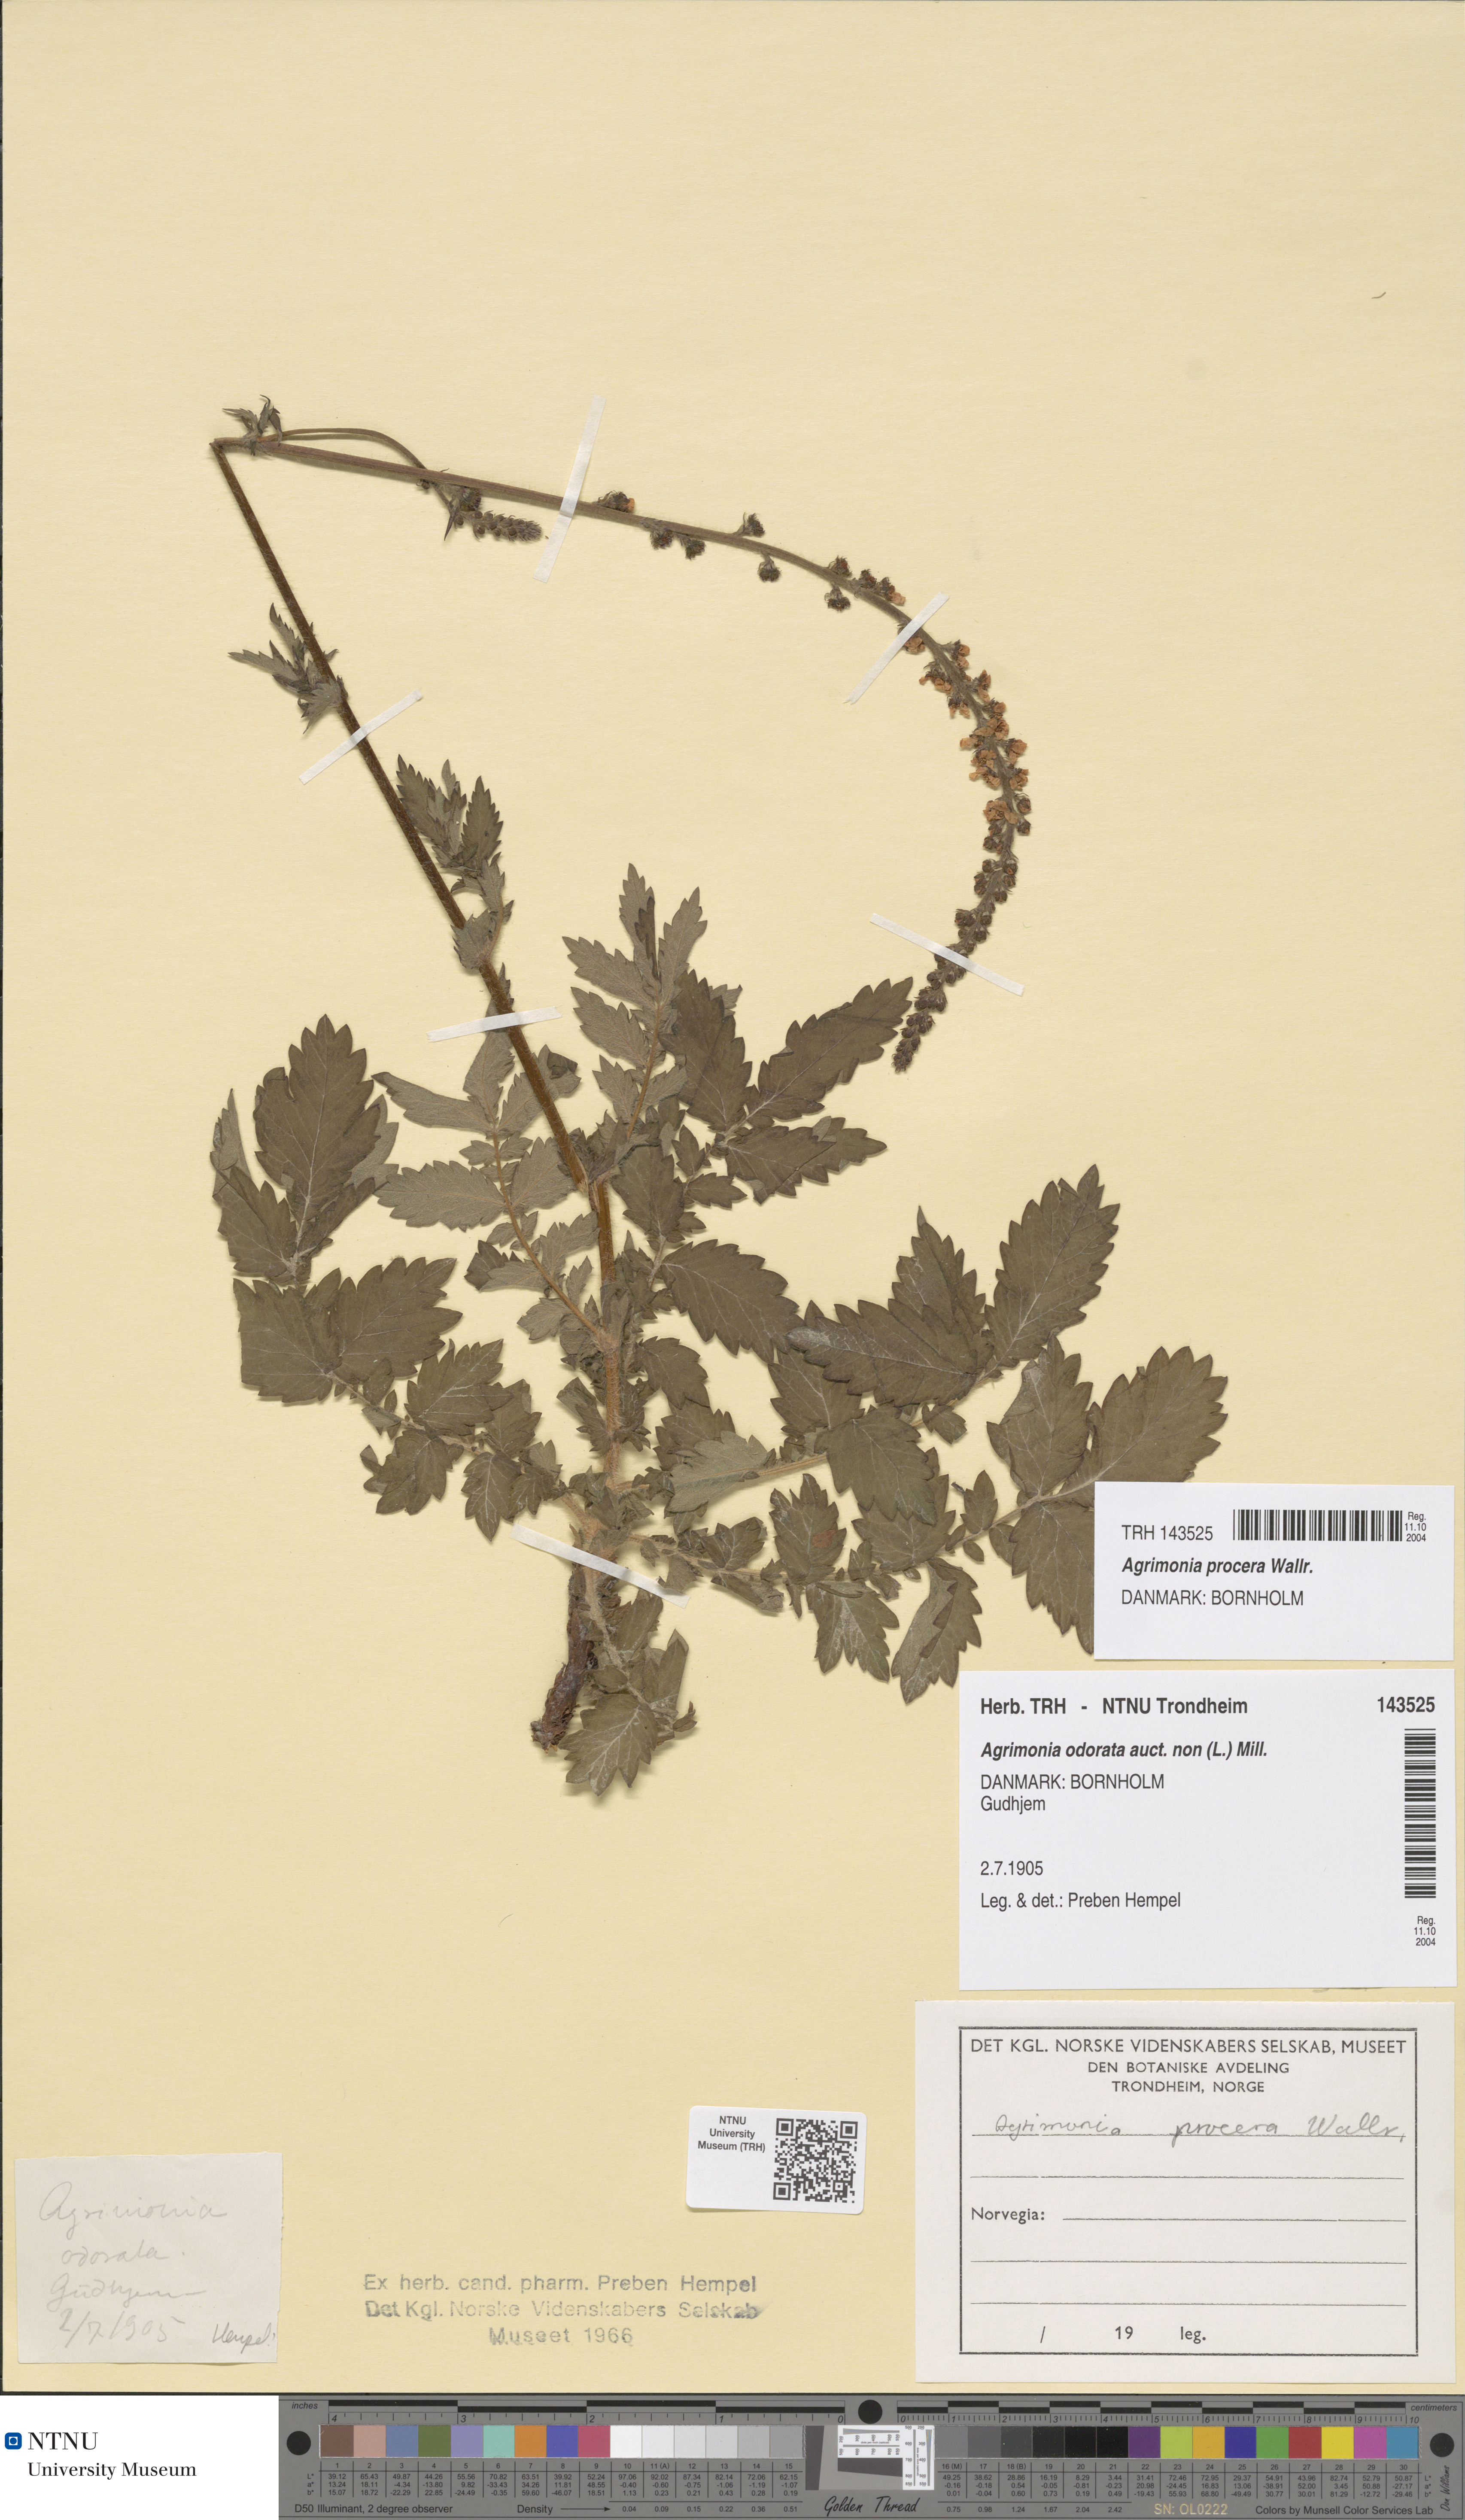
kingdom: Plantae
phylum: Tracheophyta
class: Magnoliopsida
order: Rosales
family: Rosaceae
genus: Agrimonia
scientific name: Agrimonia procera
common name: Fragrant agrimony
